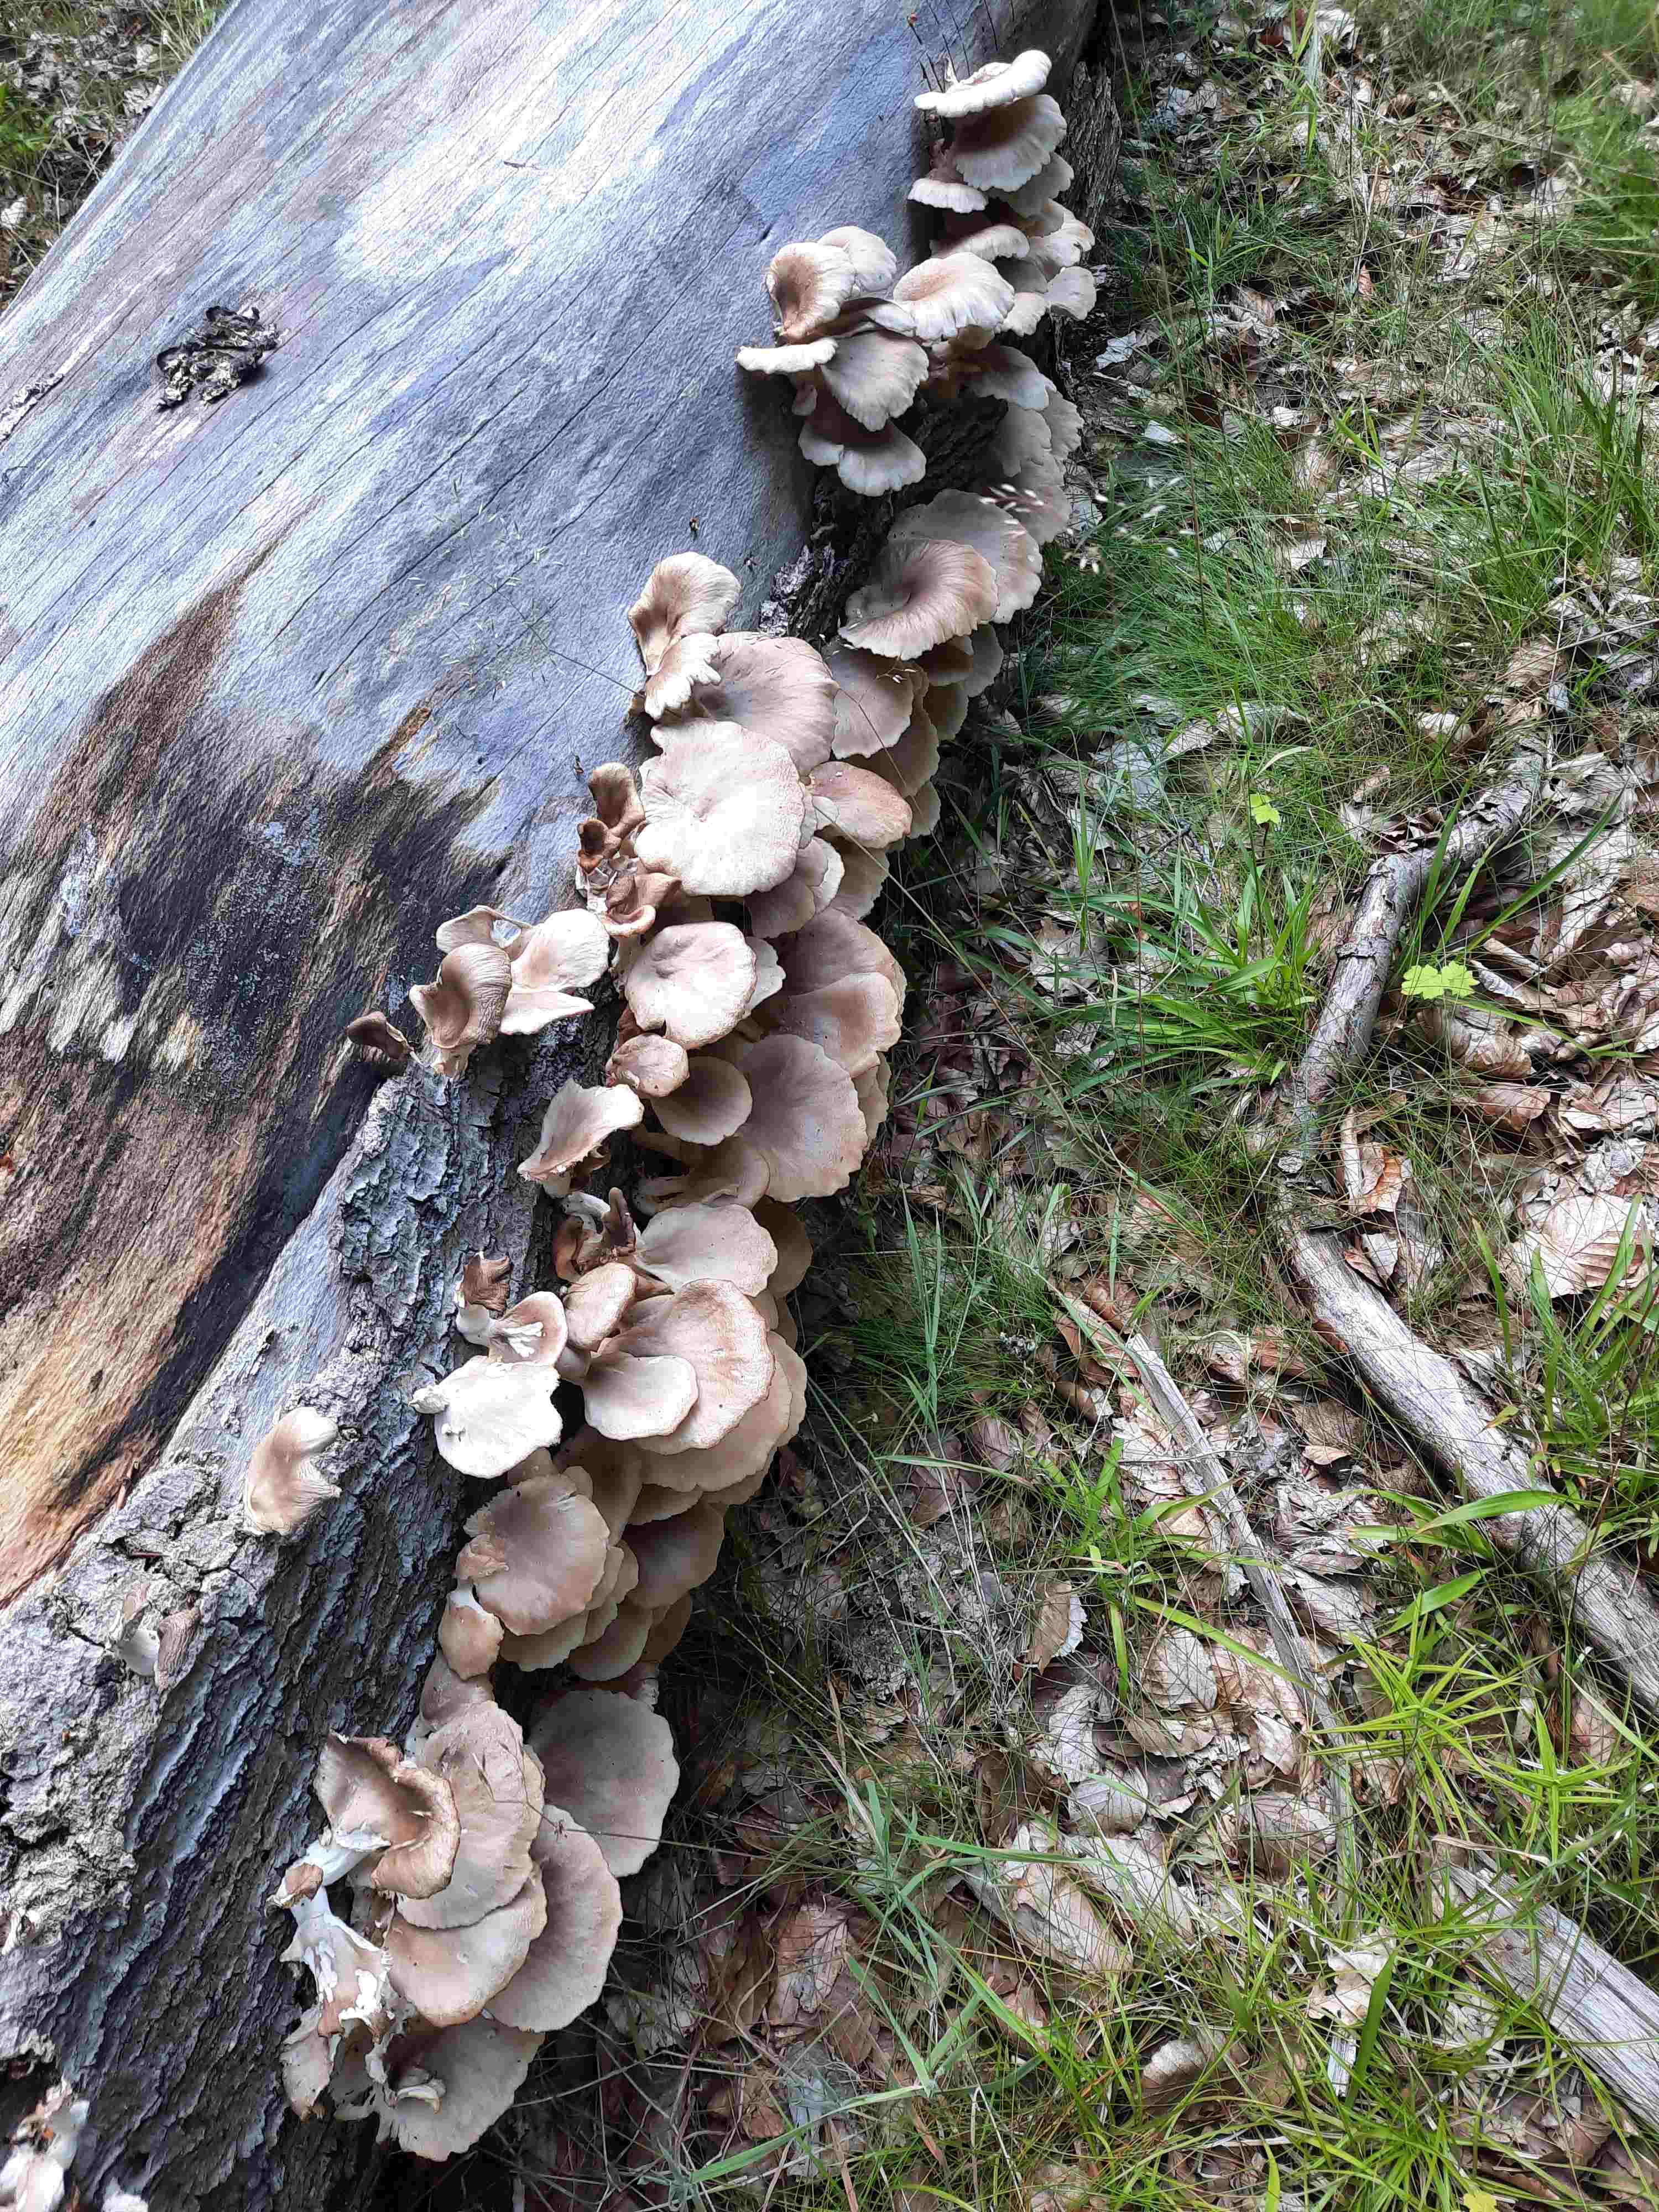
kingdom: Fungi
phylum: Basidiomycota
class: Agaricomycetes
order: Agaricales
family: Pleurotaceae
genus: Pleurotus
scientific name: Pleurotus ostreatus
